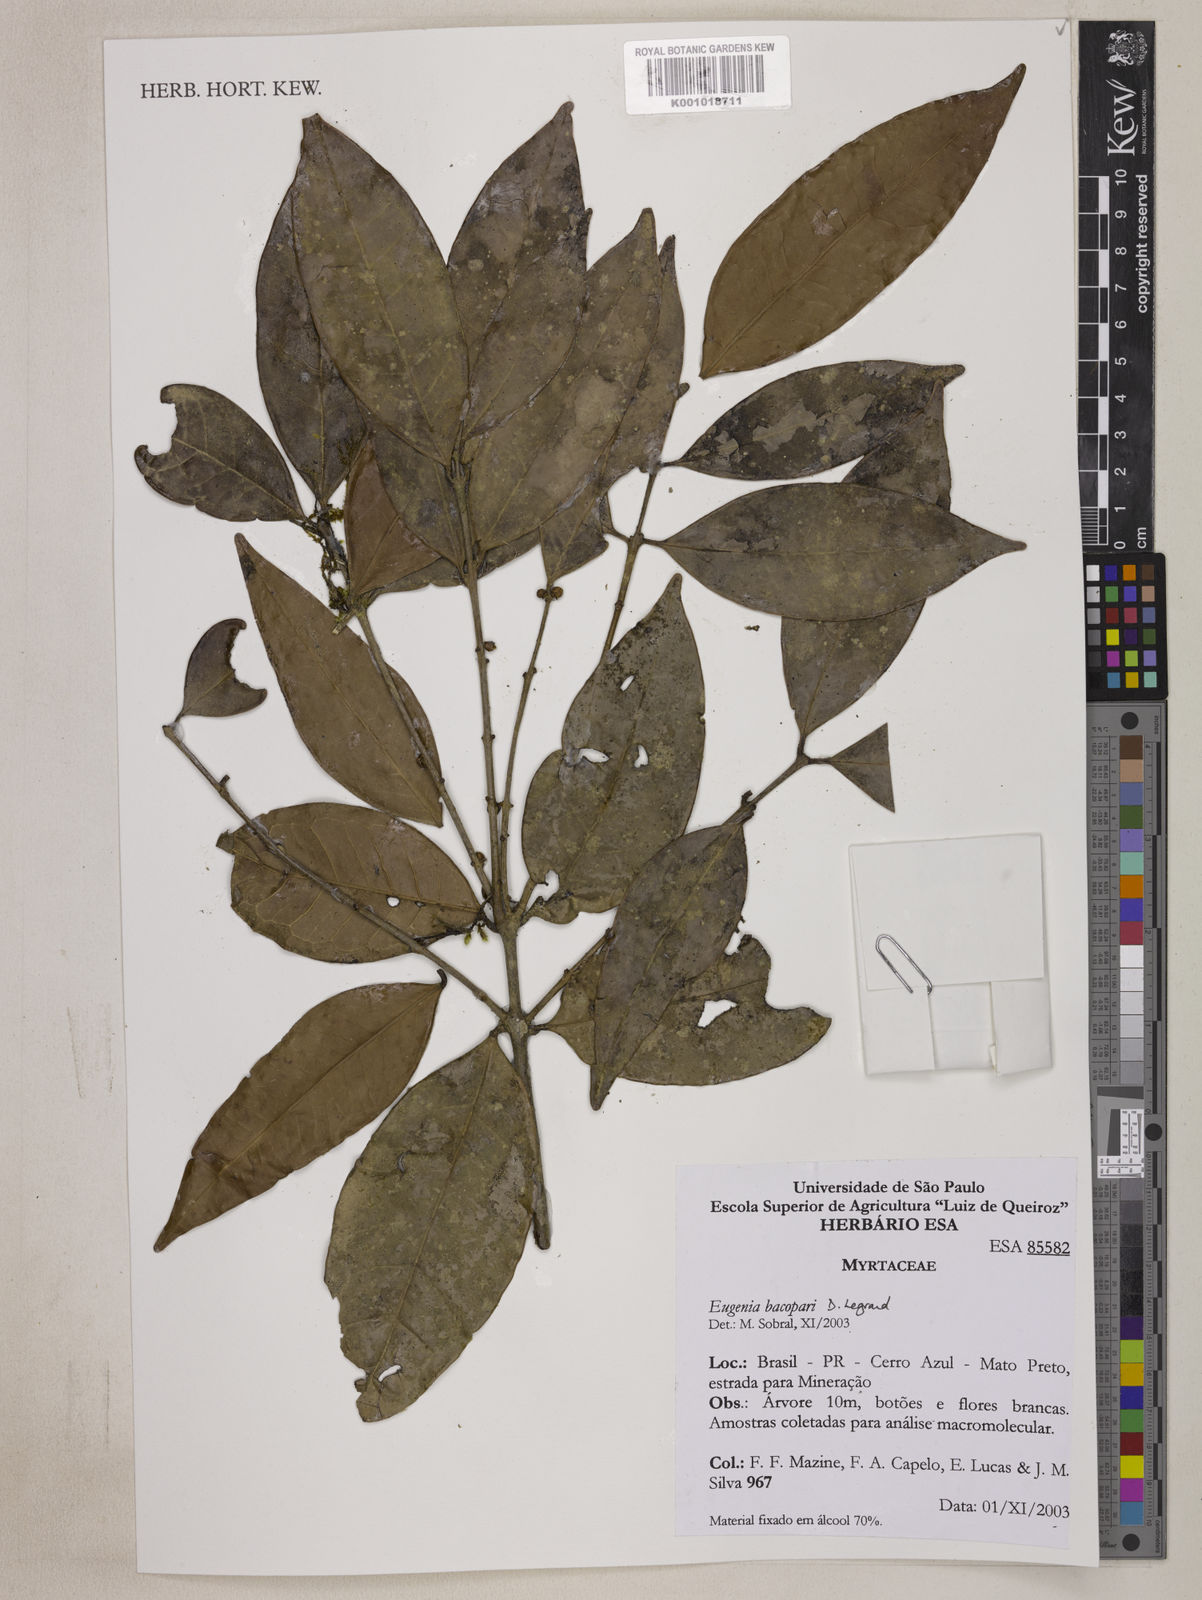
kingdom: Plantae
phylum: Tracheophyta
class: Magnoliopsida
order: Myrtales
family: Myrtaceae
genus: Eugenia
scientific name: Eugenia bacopari
